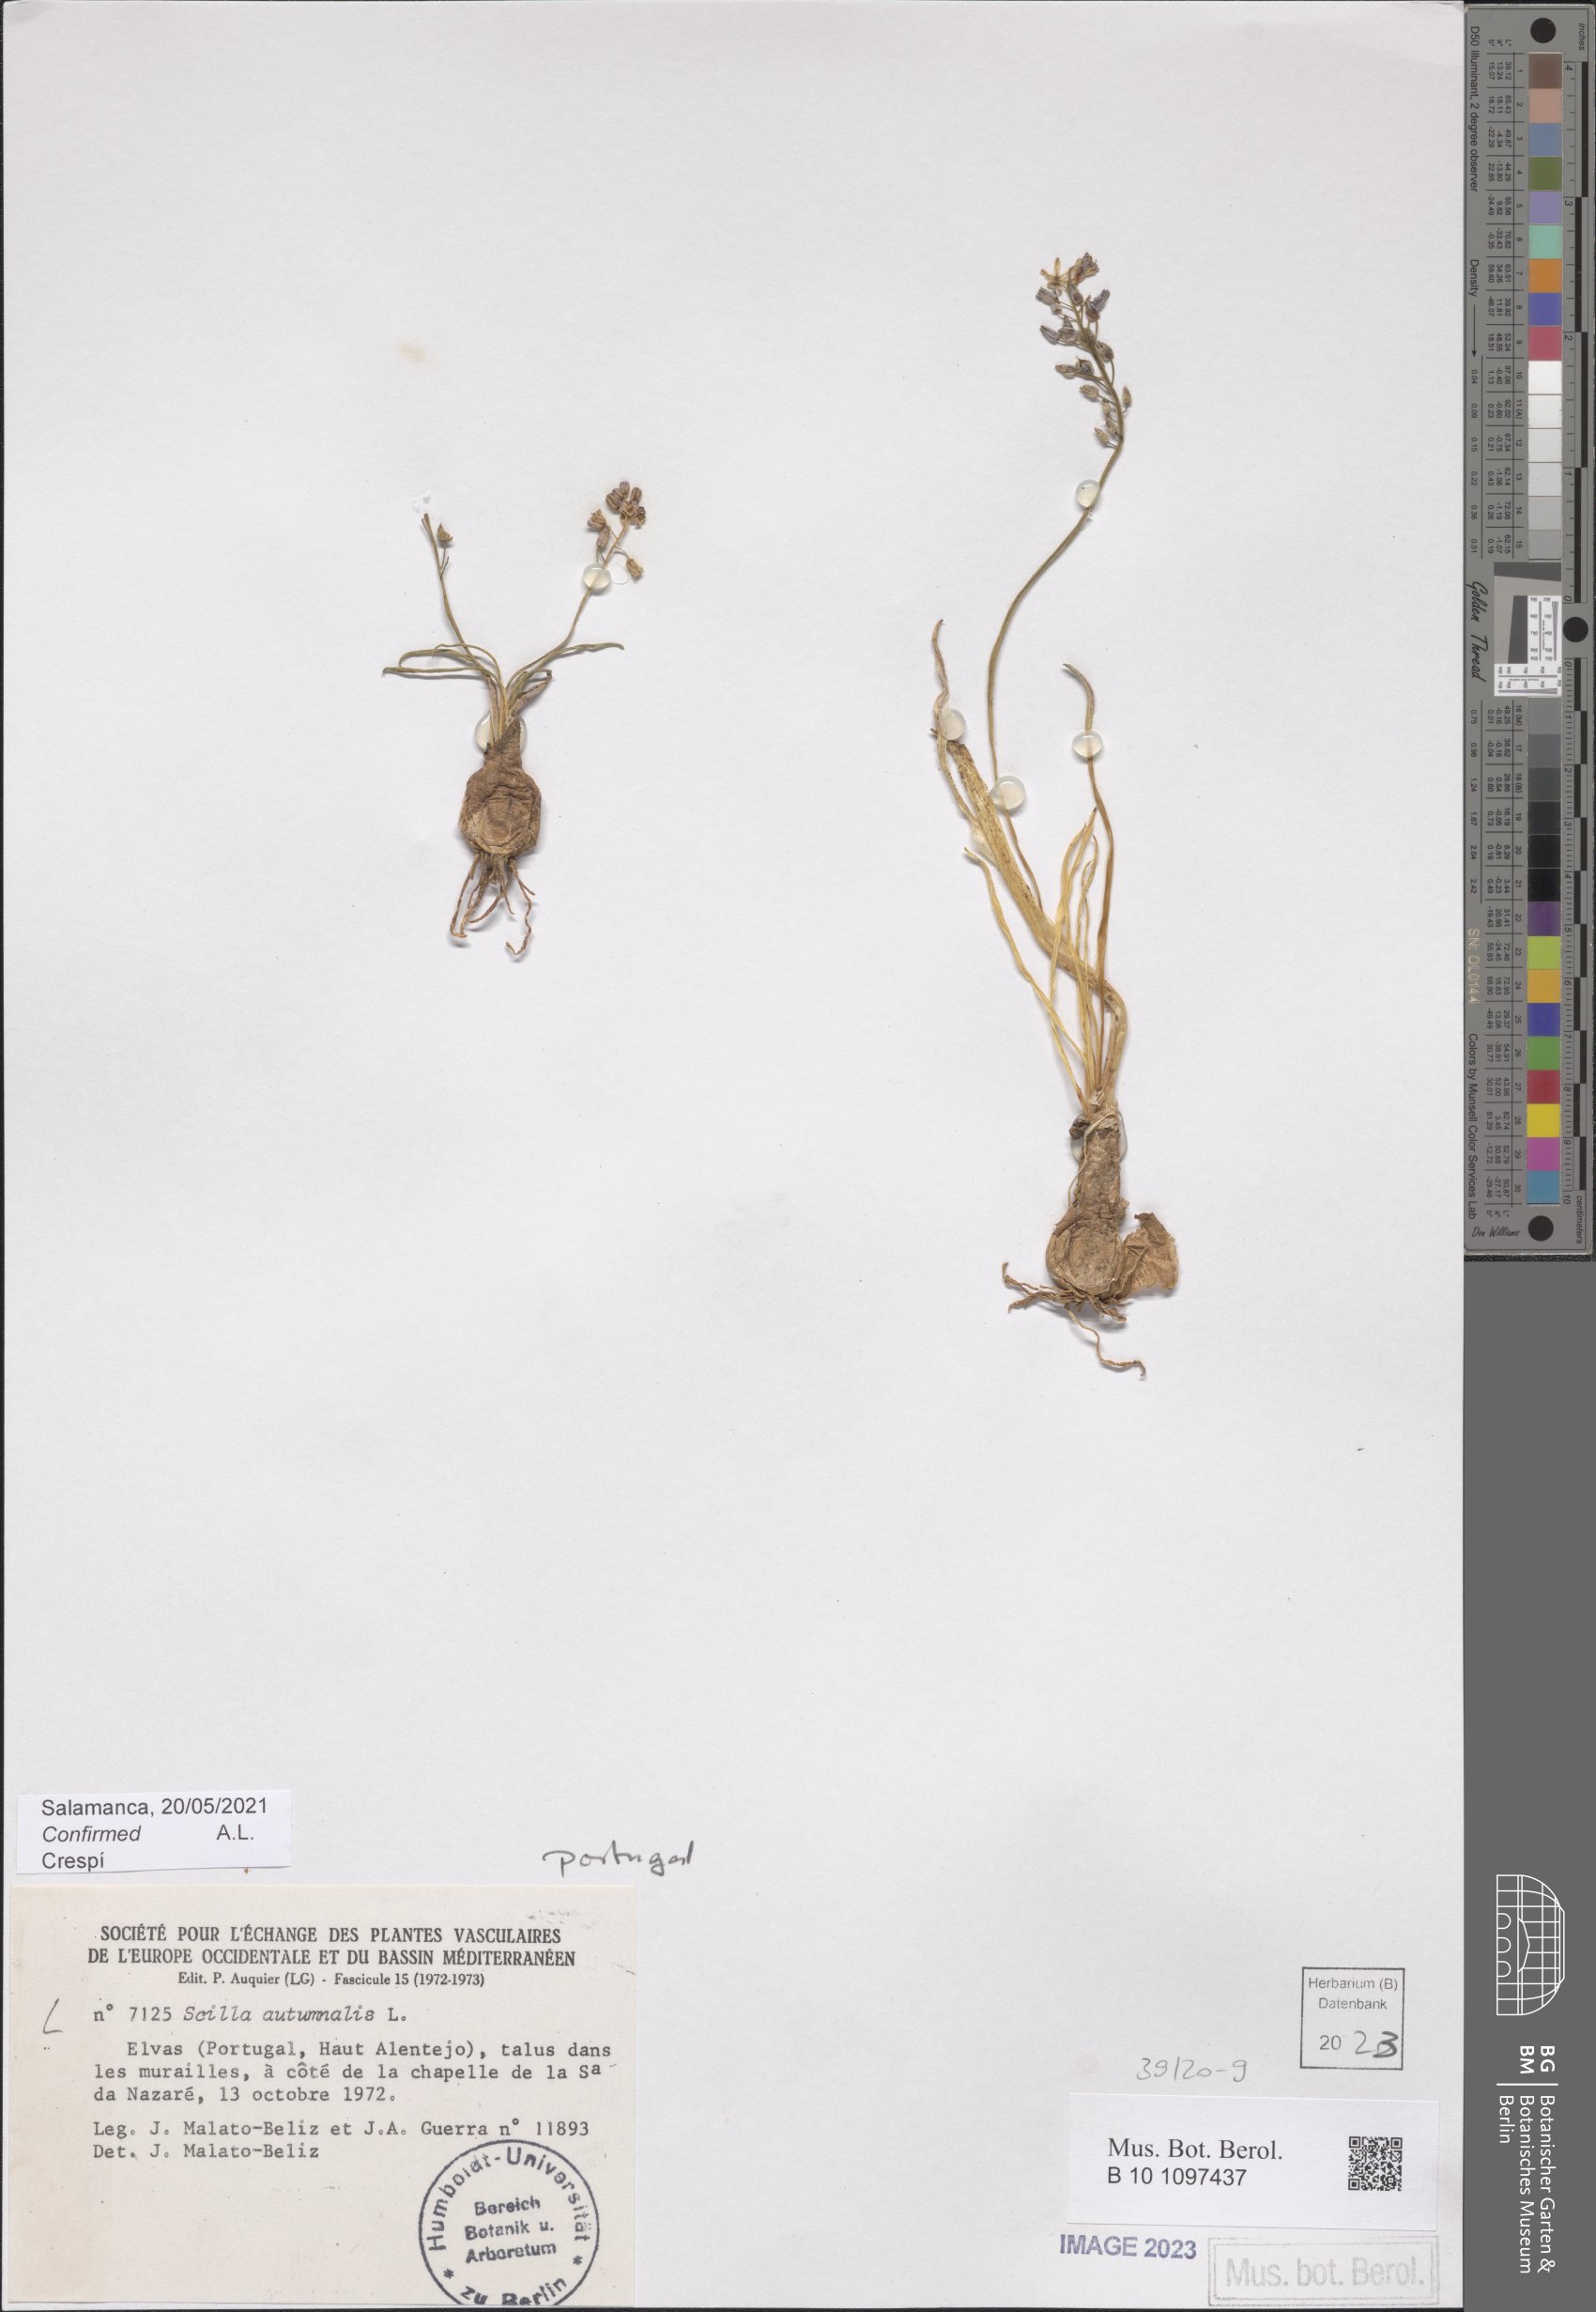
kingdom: Plantae
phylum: Tracheophyta
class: Liliopsida
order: Asparagales
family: Asparagaceae
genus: Prospero
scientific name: Prospero autumnale
